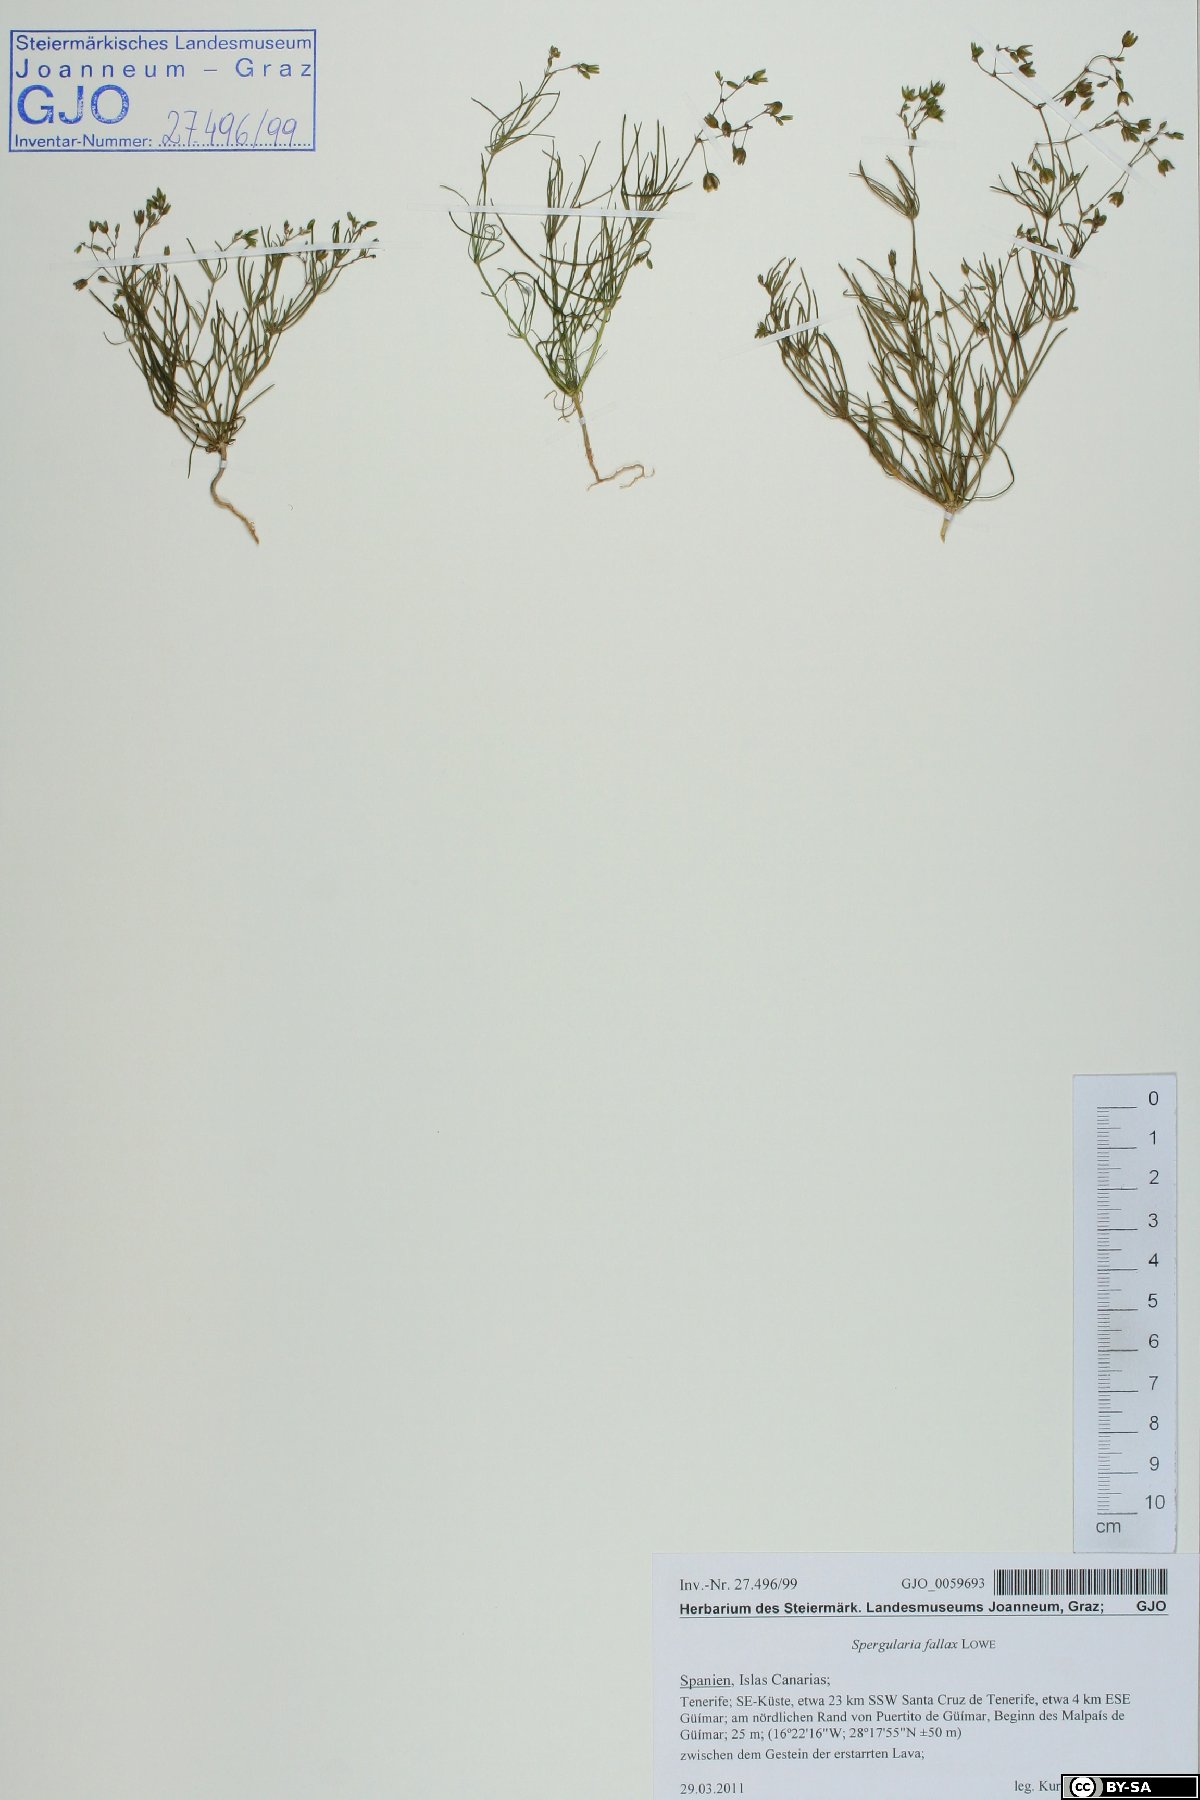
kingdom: Plantae
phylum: Tracheophyta
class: Magnoliopsida
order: Caryophyllales
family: Caryophyllaceae
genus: Spergularia
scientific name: Spergularia flaccida
